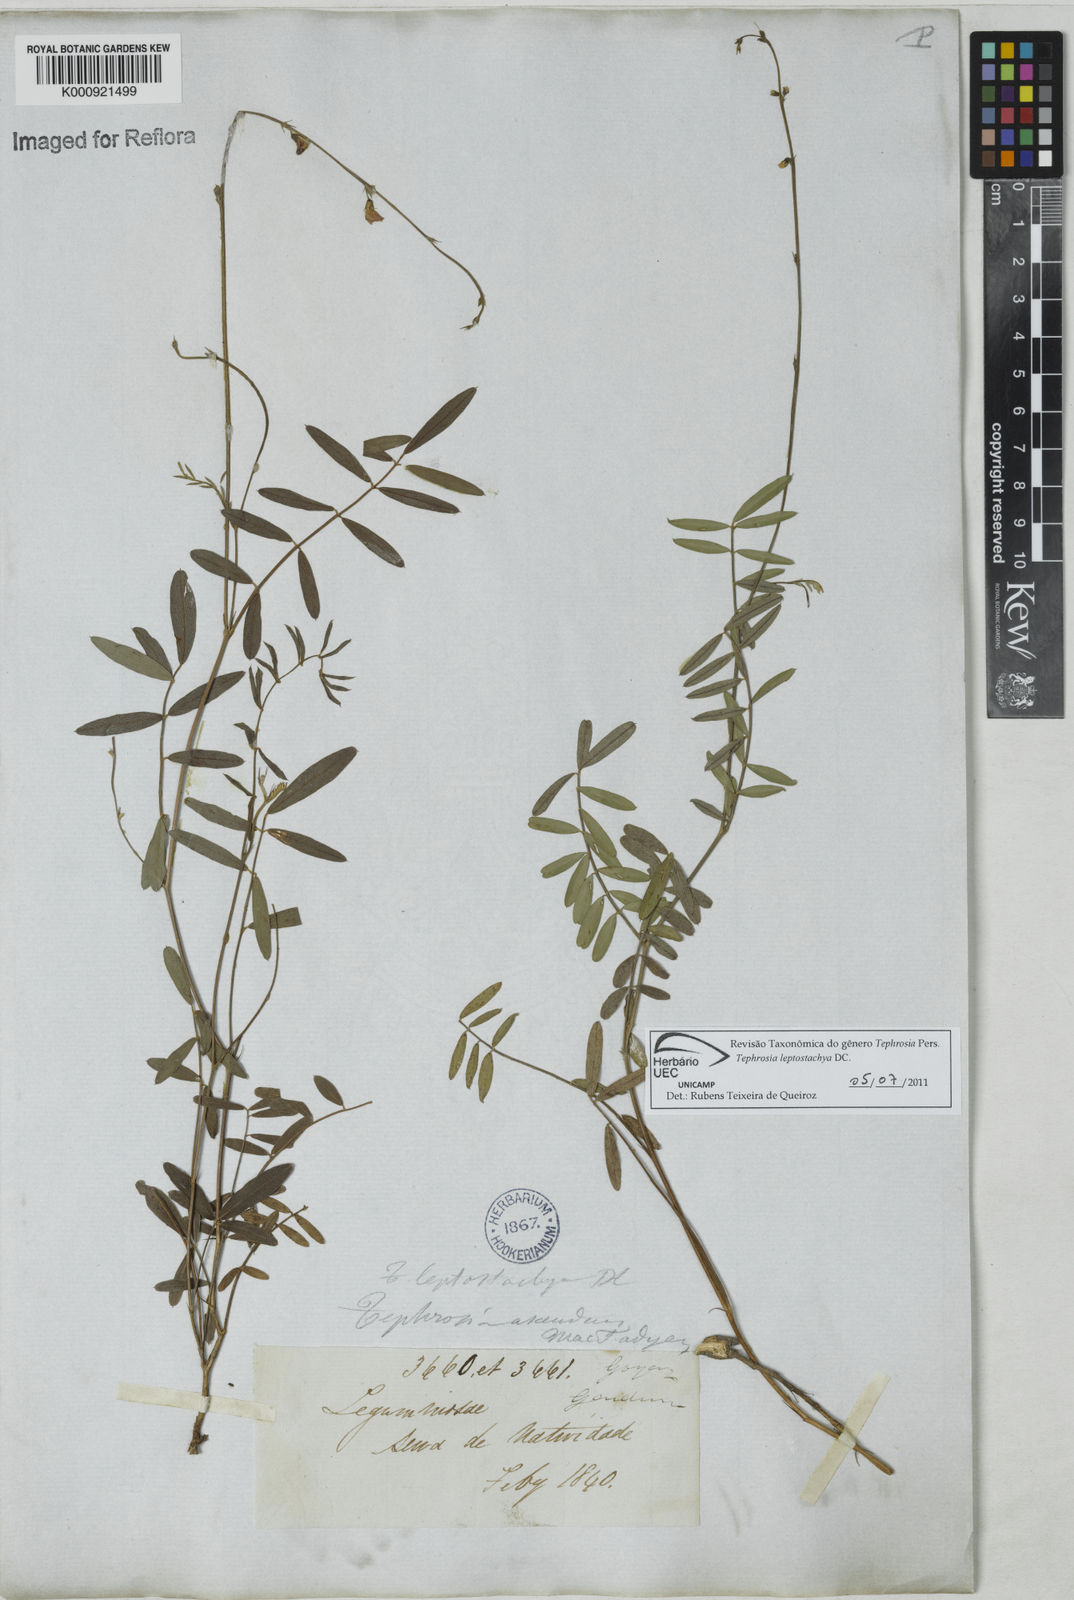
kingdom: Plantae
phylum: Tracheophyta
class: Magnoliopsida
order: Fabales
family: Fabaceae
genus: Tephrosia
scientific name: Tephrosia purpurea
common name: Fishpoison
